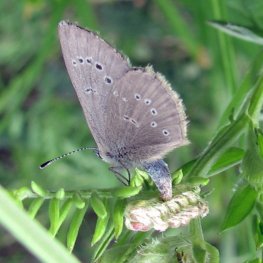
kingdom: Animalia
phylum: Arthropoda
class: Insecta
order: Lepidoptera
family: Lycaenidae
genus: Glaucopsyche
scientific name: Glaucopsyche lygdamus
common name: Silvery Blue
